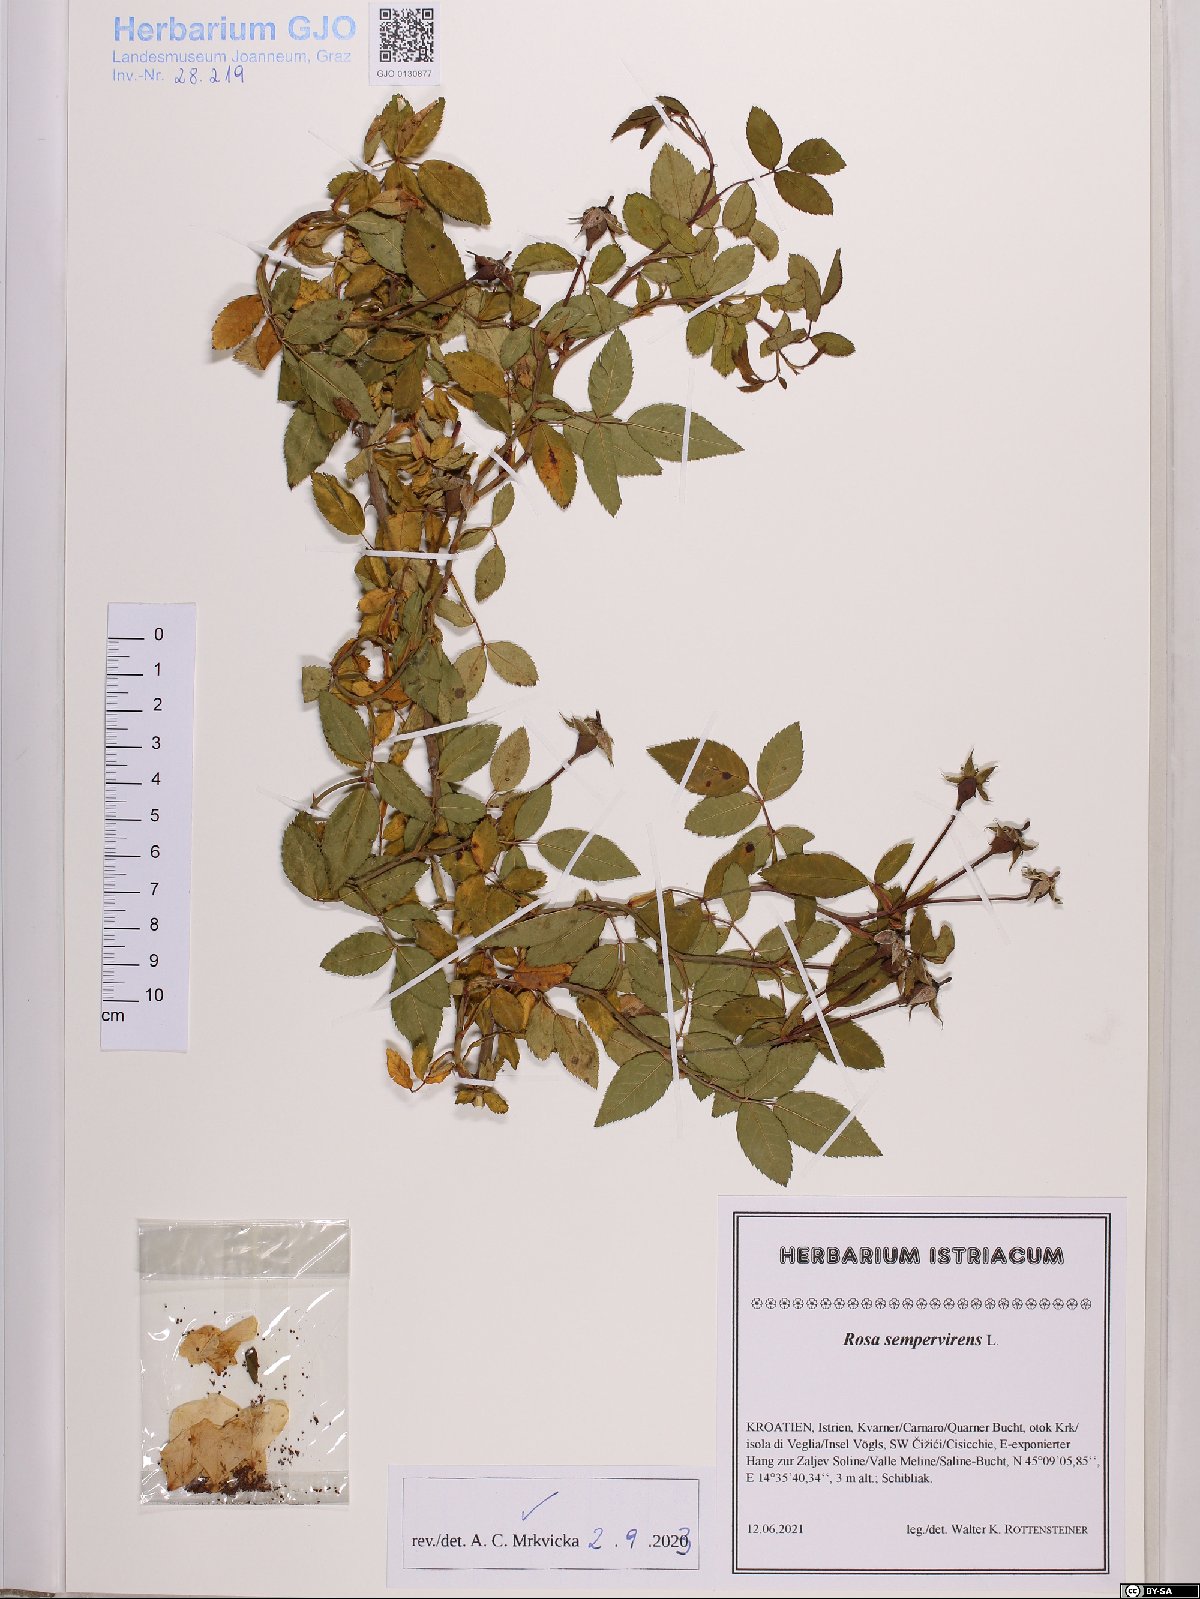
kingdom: Plantae
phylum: Tracheophyta
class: Magnoliopsida
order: Rosales
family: Rosaceae
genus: Rosa
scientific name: Rosa sempervirens
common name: Evergreen rose
